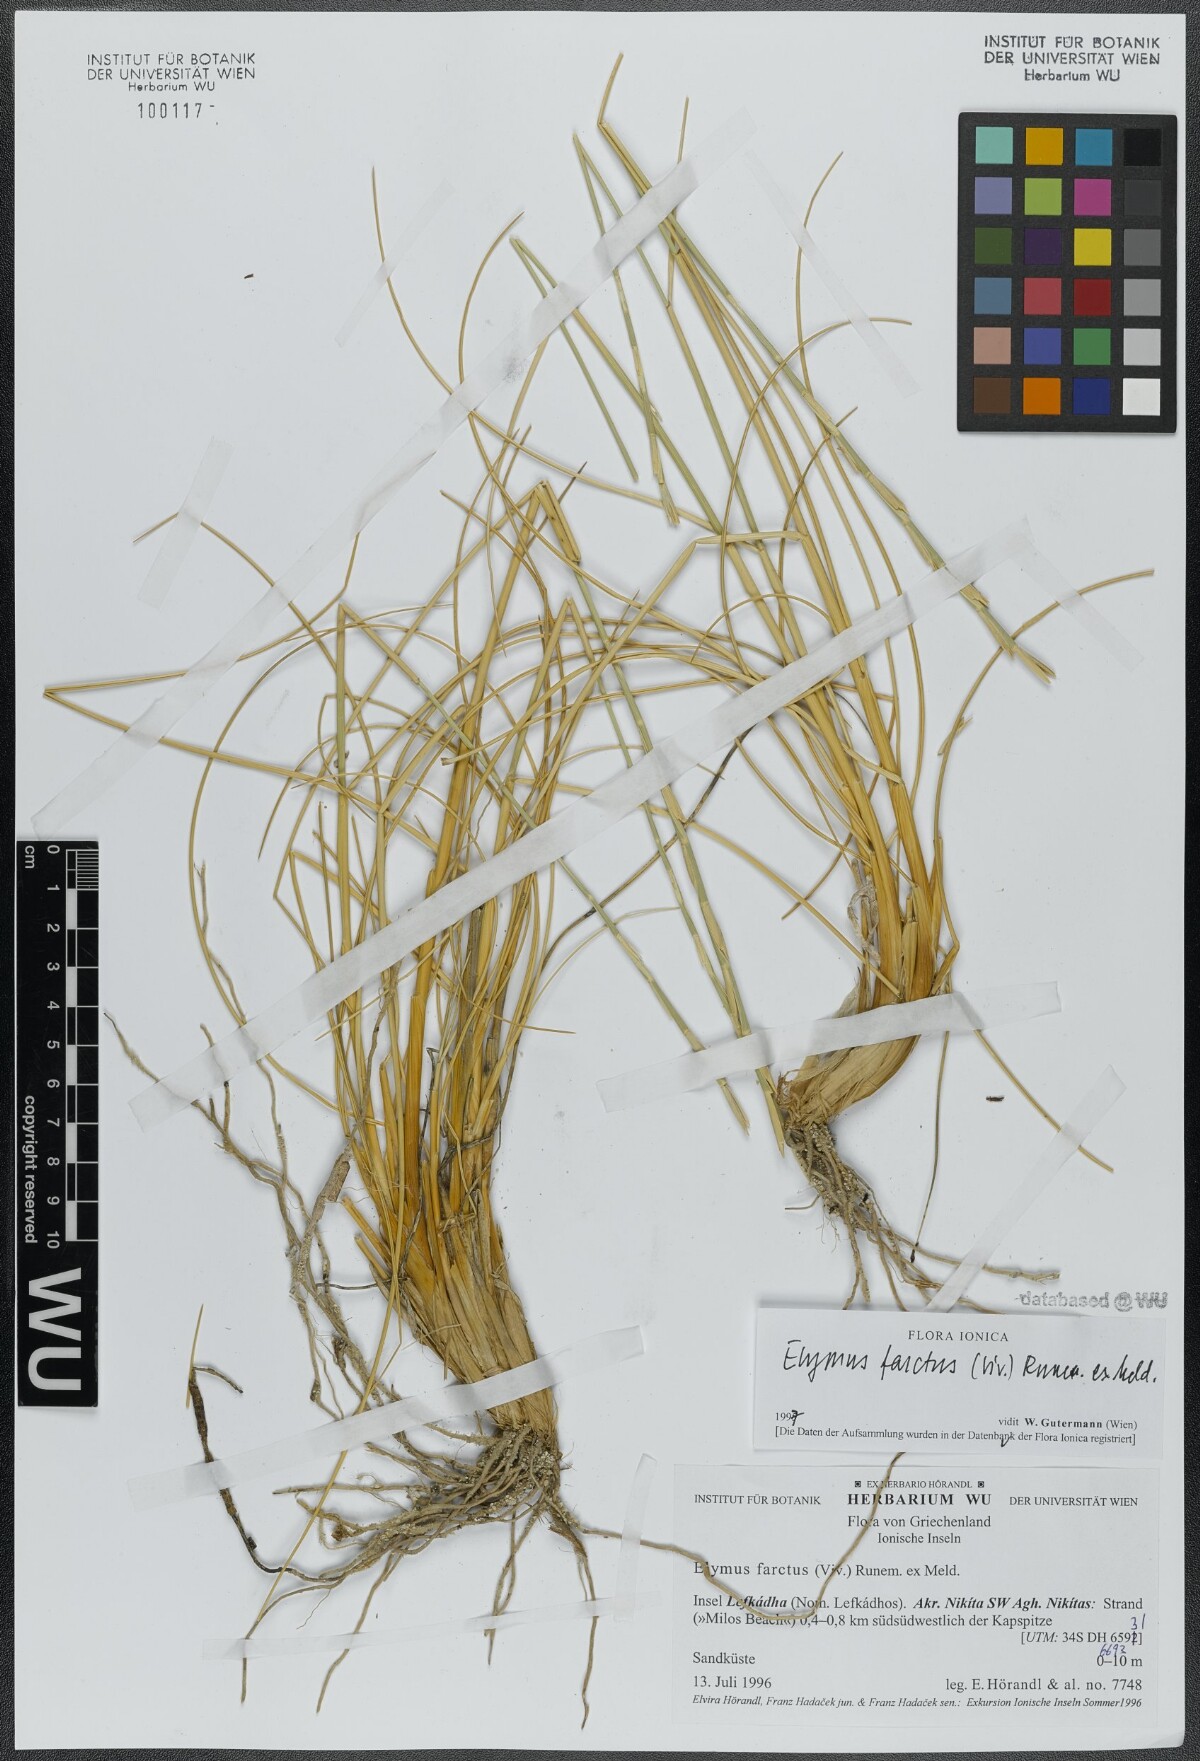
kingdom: Plantae
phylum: Tracheophyta
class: Liliopsida
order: Poales
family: Poaceae
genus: Thinopyrum
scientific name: Thinopyrum junceum
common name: Russian wheatgrass
